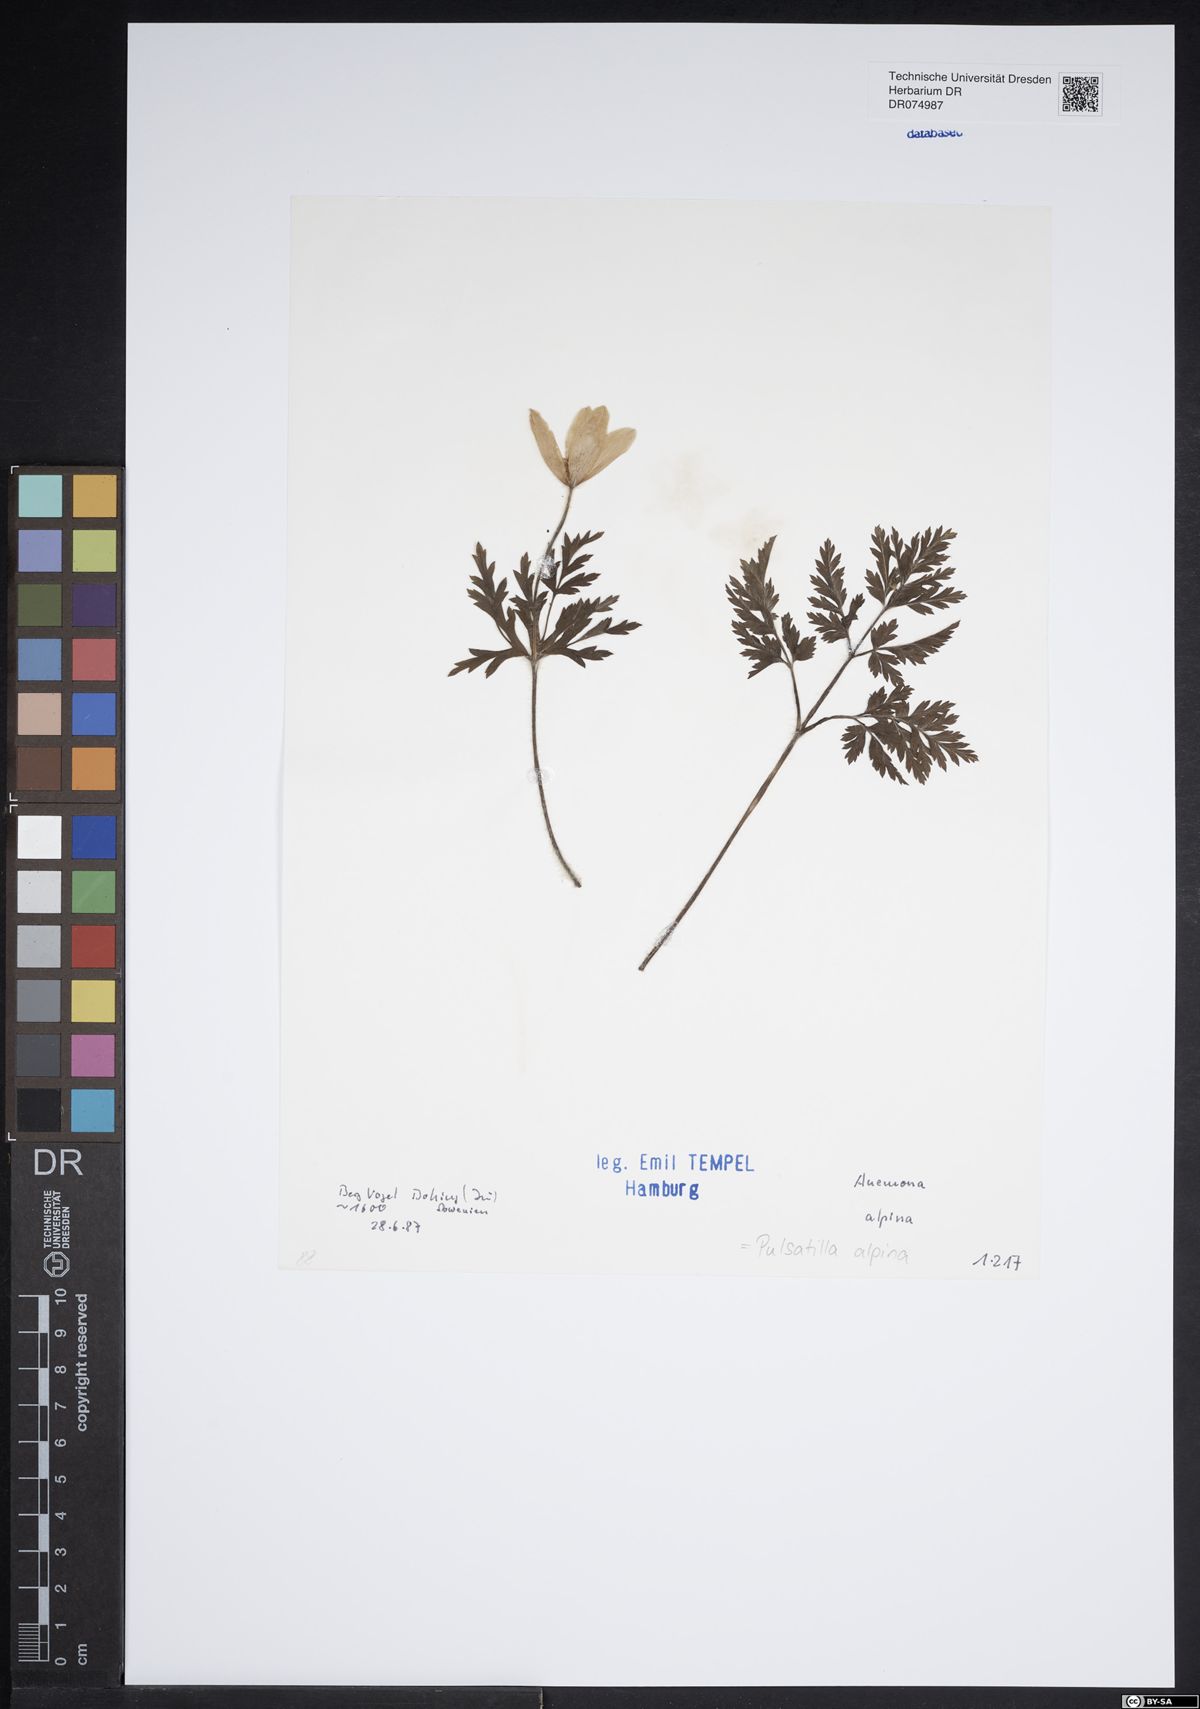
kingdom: Plantae
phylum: Tracheophyta
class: Magnoliopsida
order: Ranunculales
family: Ranunculaceae
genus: Pulsatilla
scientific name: Pulsatilla alpina
